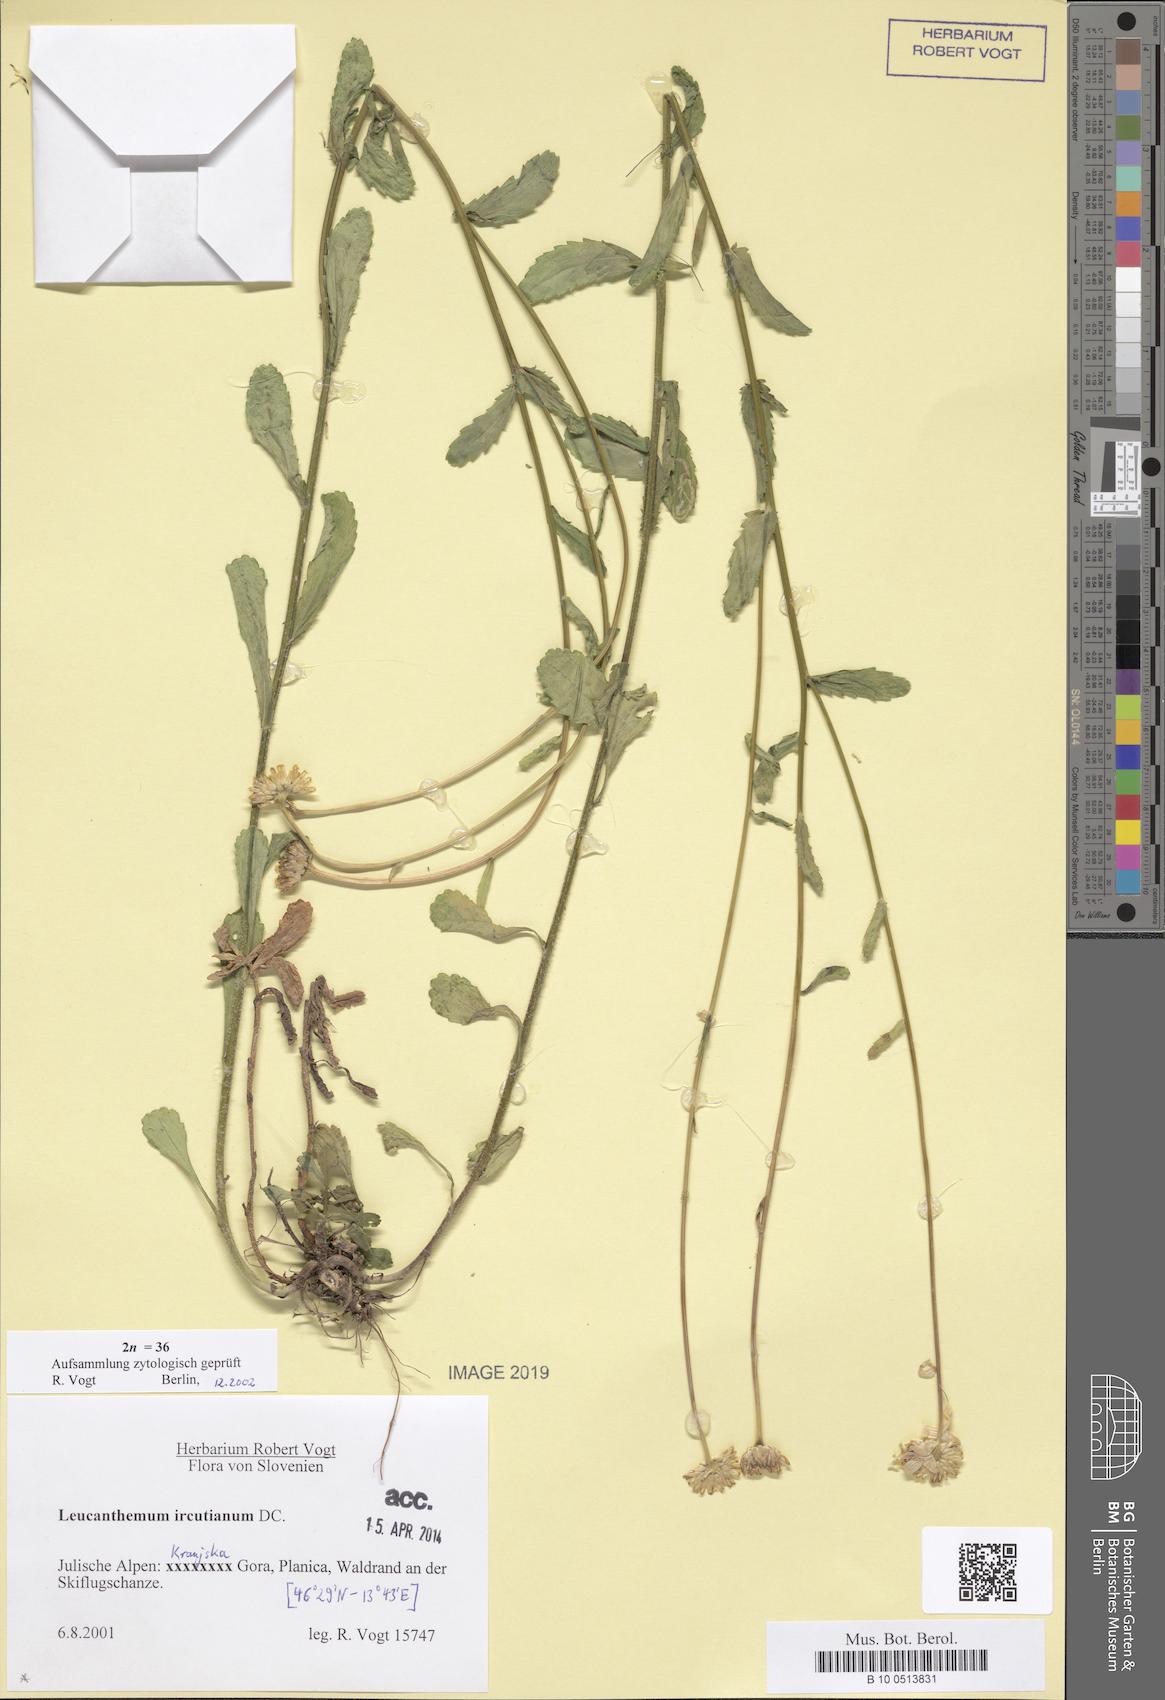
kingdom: Plantae
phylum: Tracheophyta
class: Magnoliopsida
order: Asterales
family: Asteraceae
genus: Leucanthemum
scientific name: Leucanthemum ircutianum
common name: Daisy
